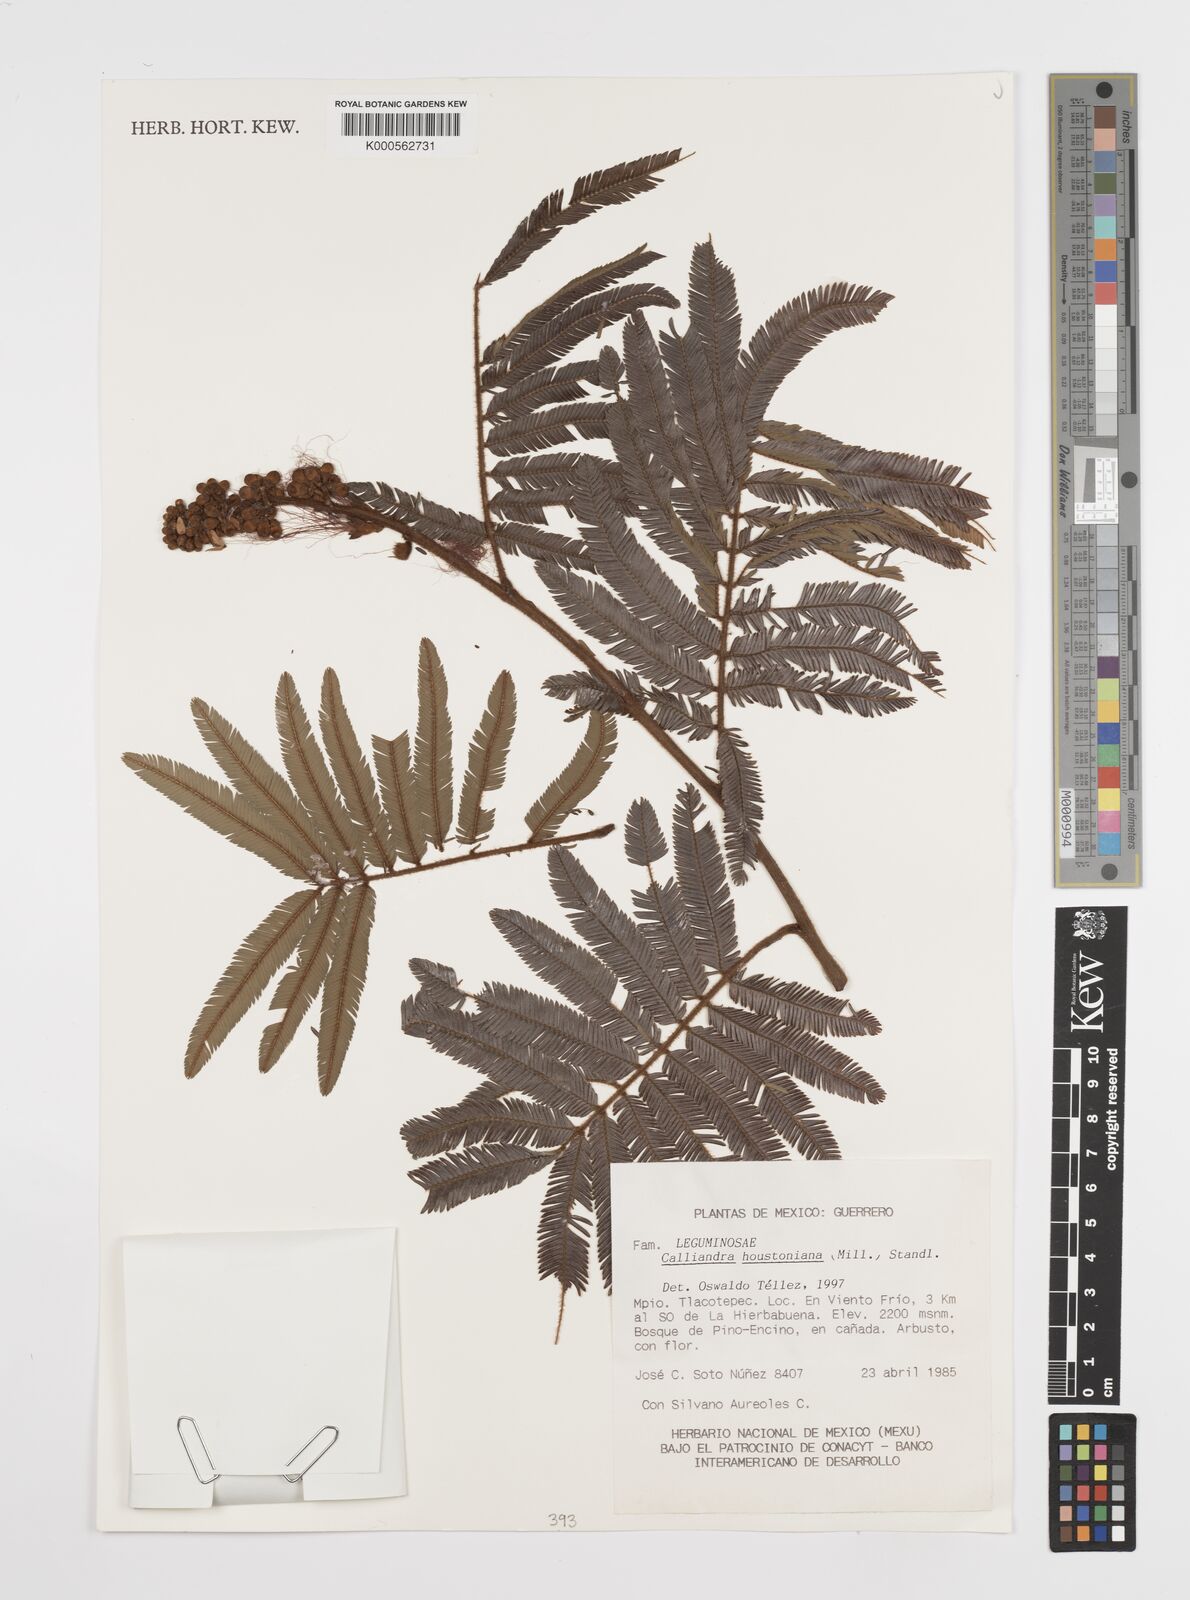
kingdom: Plantae
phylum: Tracheophyta
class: Magnoliopsida
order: Fabales
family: Fabaceae
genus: Calliandra
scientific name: Calliandra houstoniana
